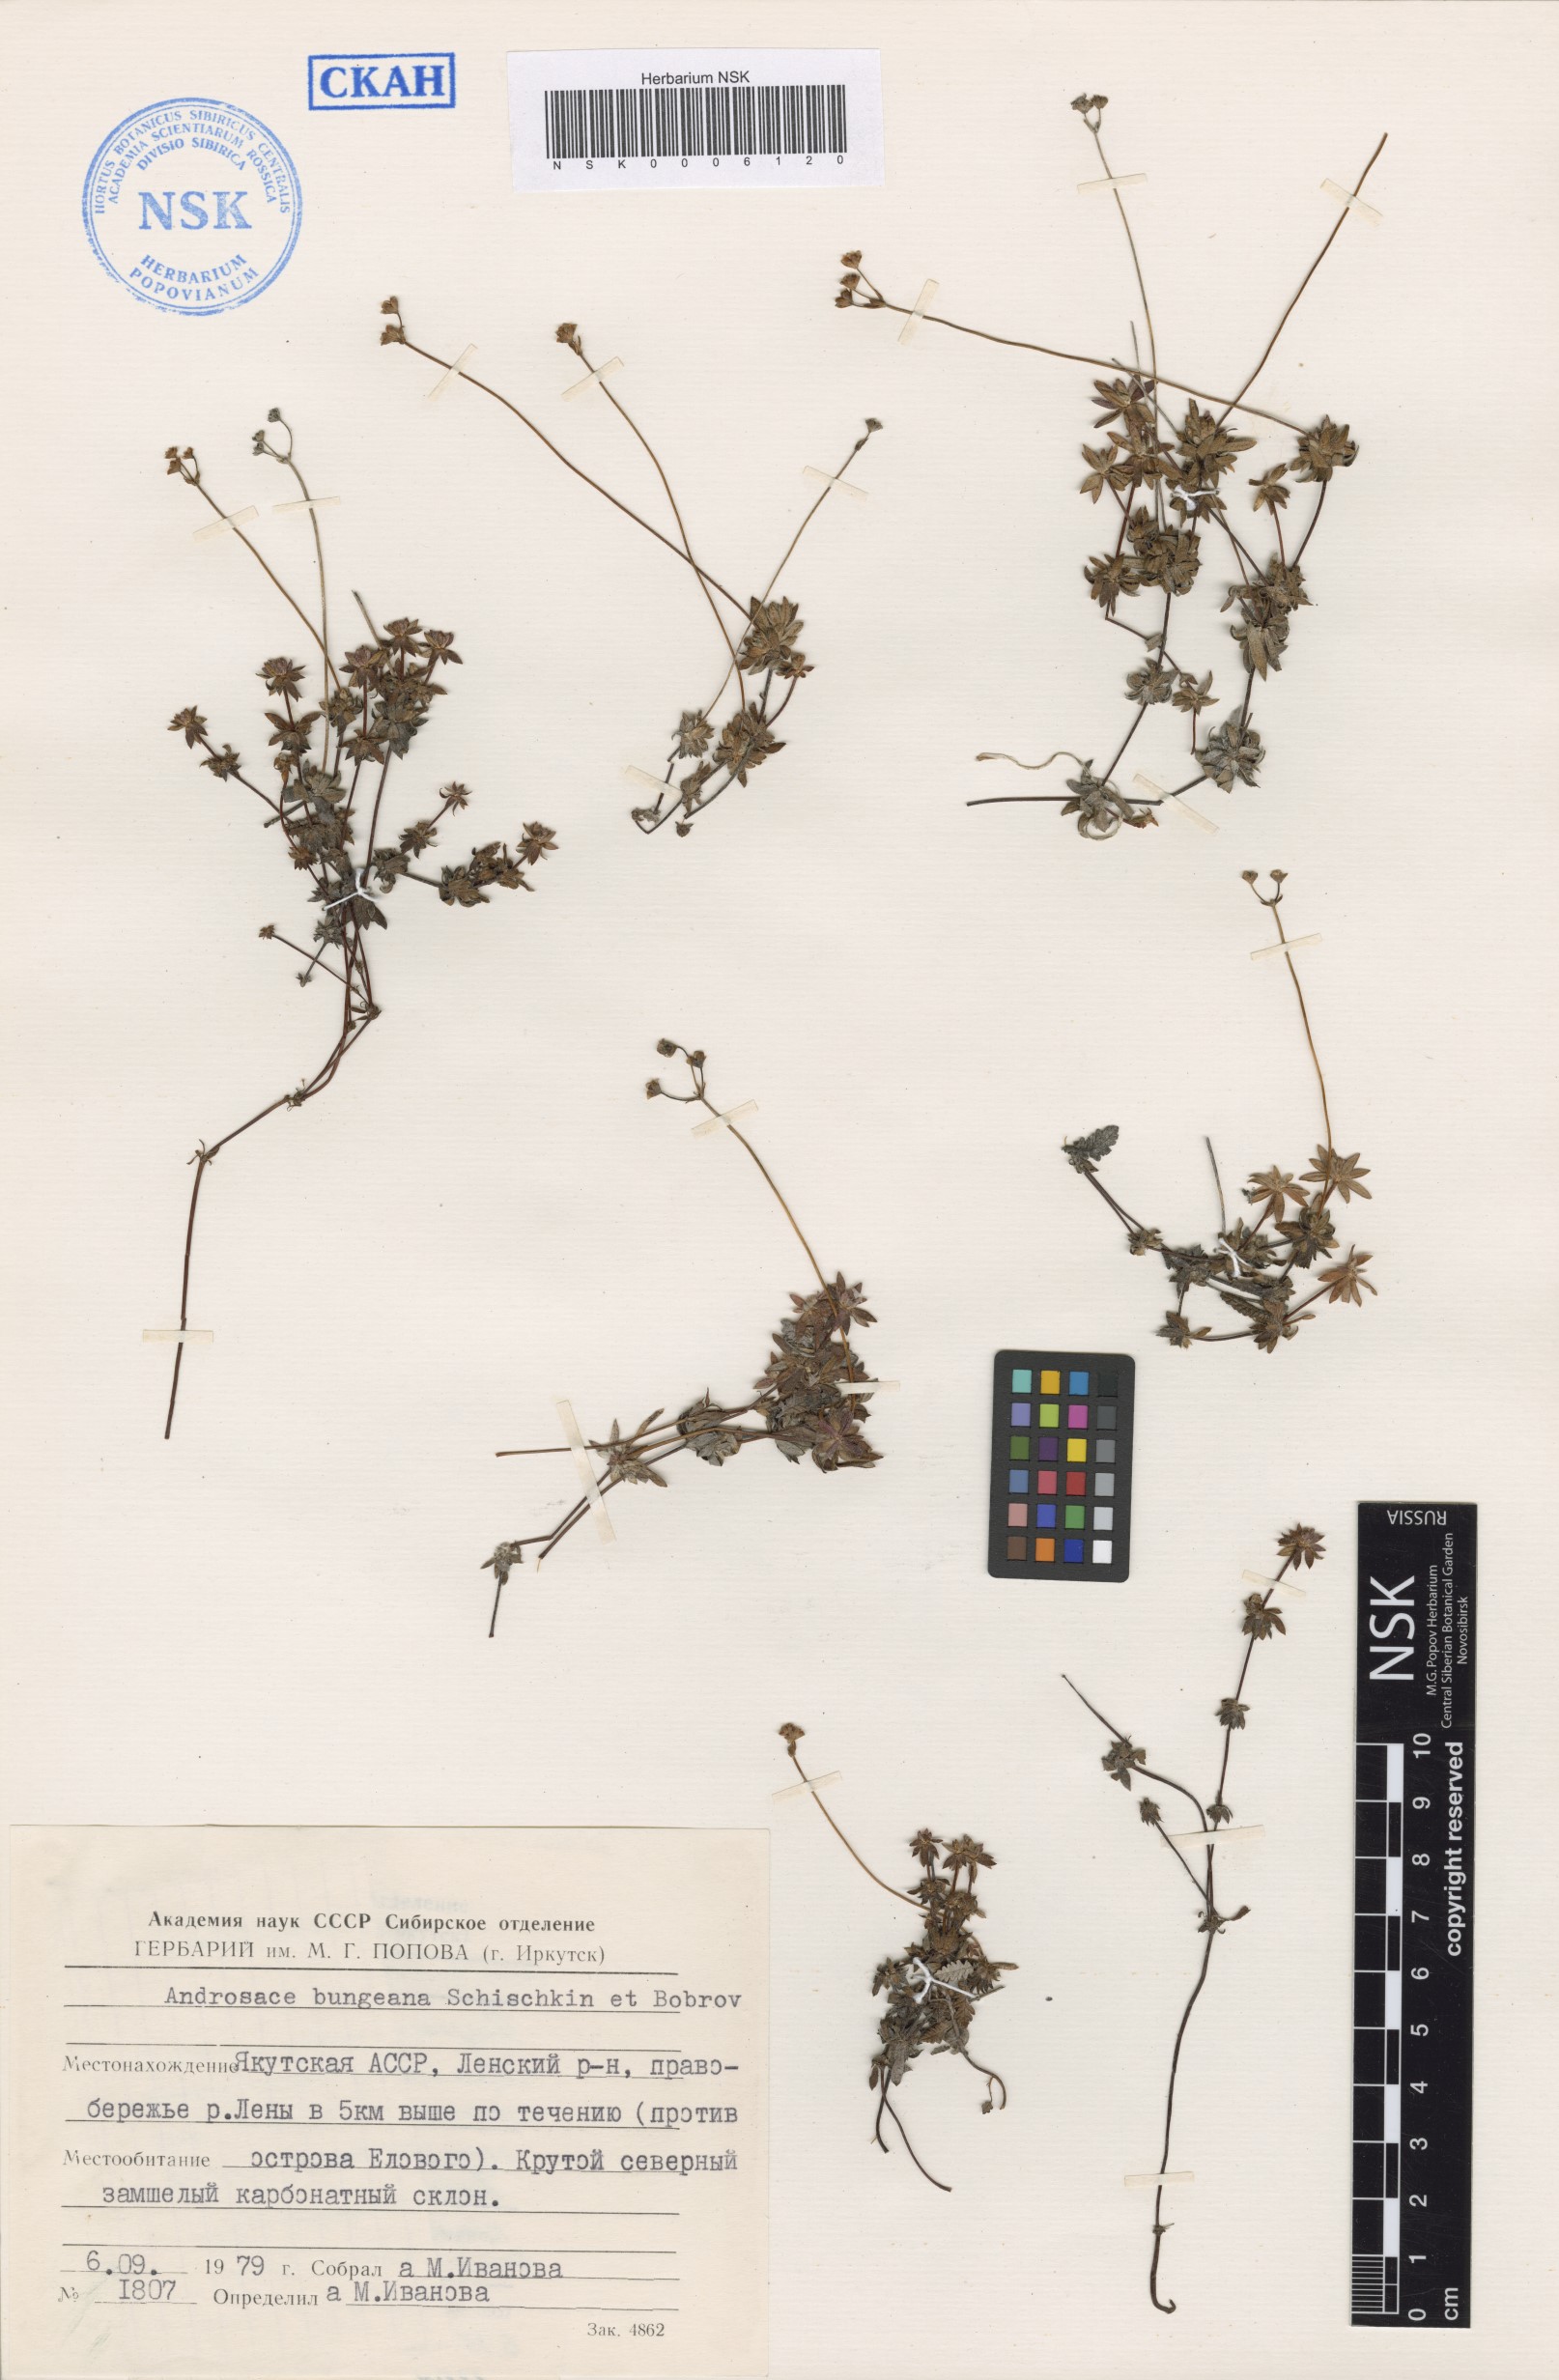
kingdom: Plantae
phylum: Tracheophyta
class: Magnoliopsida
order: Ericales
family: Primulaceae
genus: Androsace
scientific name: Androsace bungeana
